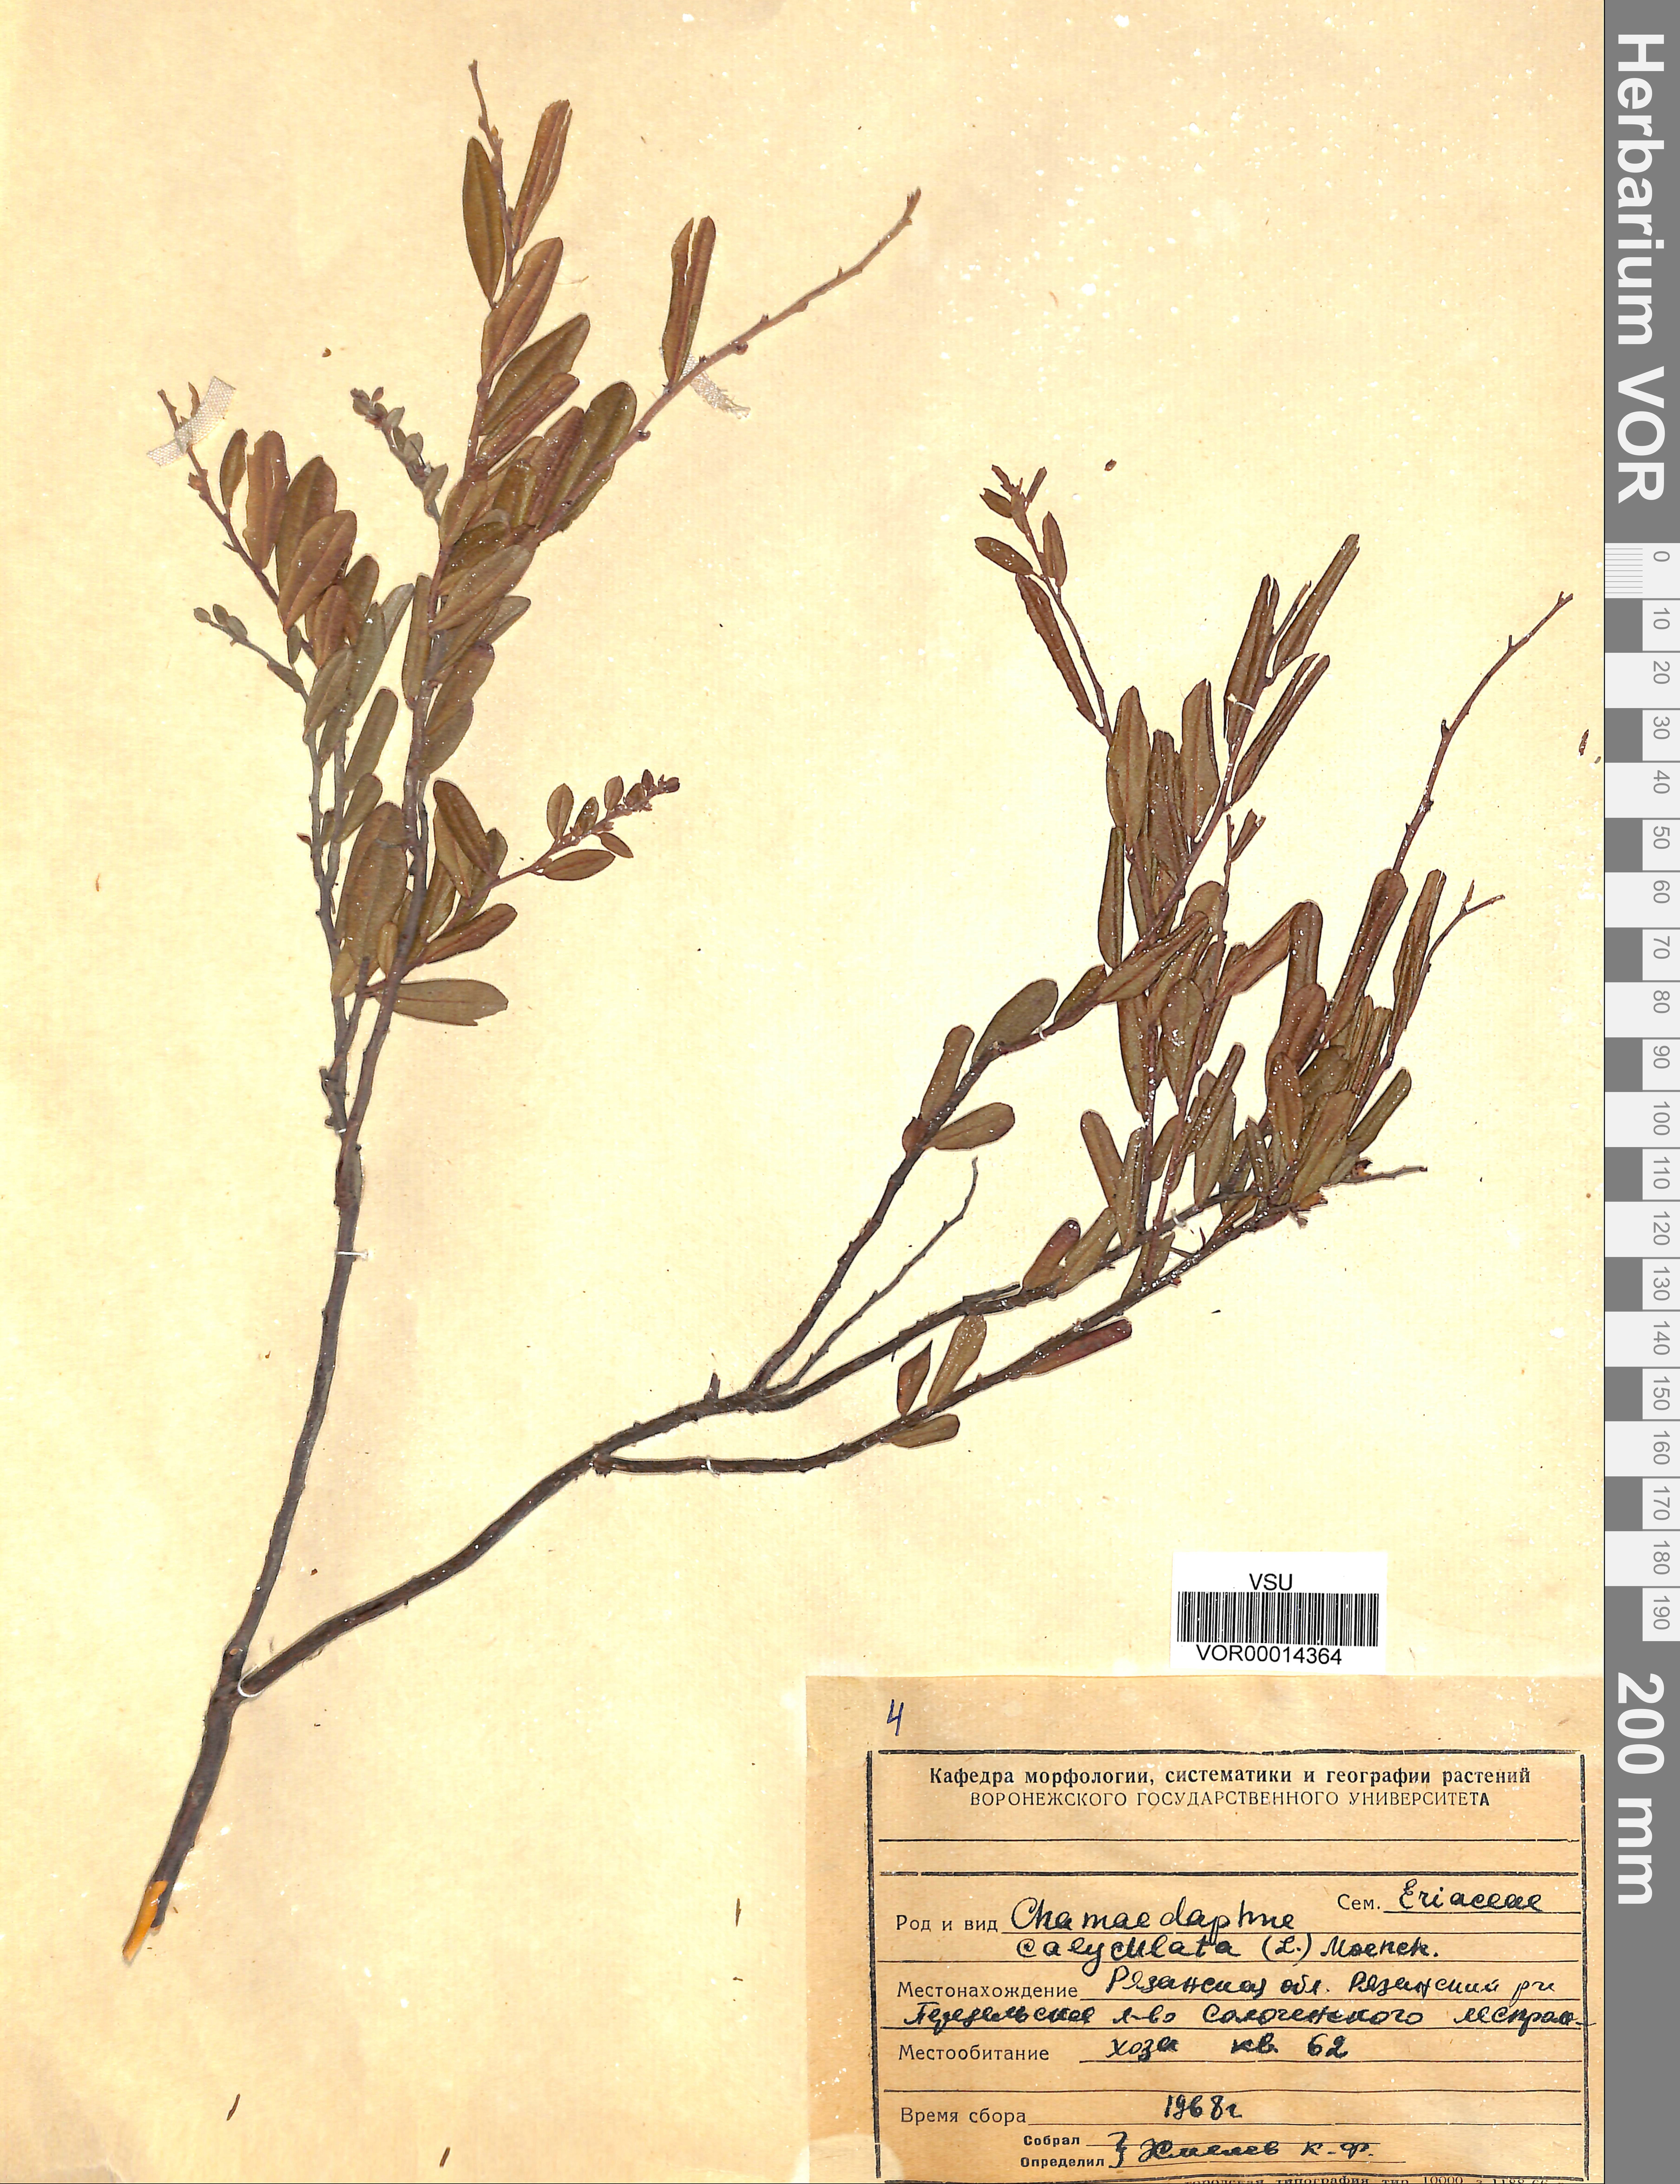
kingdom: Plantae
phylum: Tracheophyta
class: Magnoliopsida
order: Ericales
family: Ericaceae
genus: Chamaedaphne
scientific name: Chamaedaphne calyculata
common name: Leatherleaf
